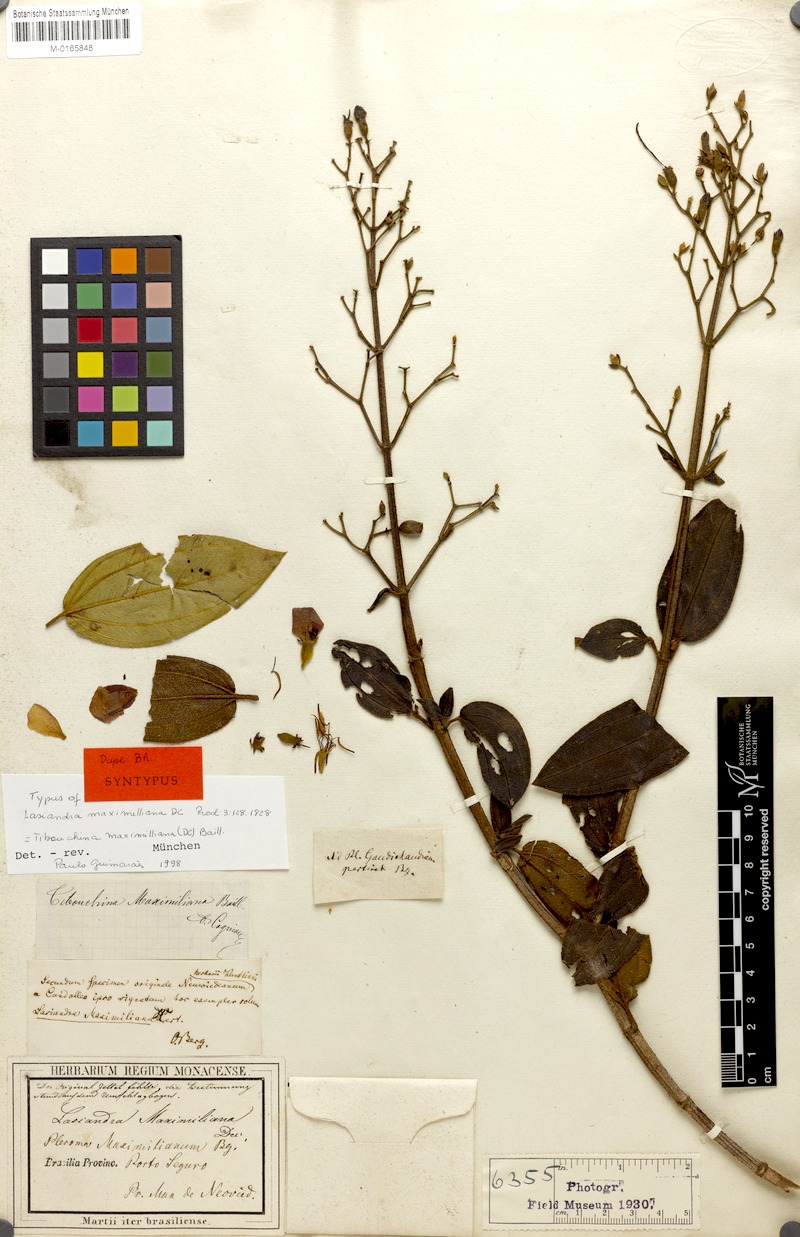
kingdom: Plantae
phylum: Tracheophyta
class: Magnoliopsida
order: Myrtales
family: Melastomataceae
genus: Pleroma
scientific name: Pleroma maximilianum
